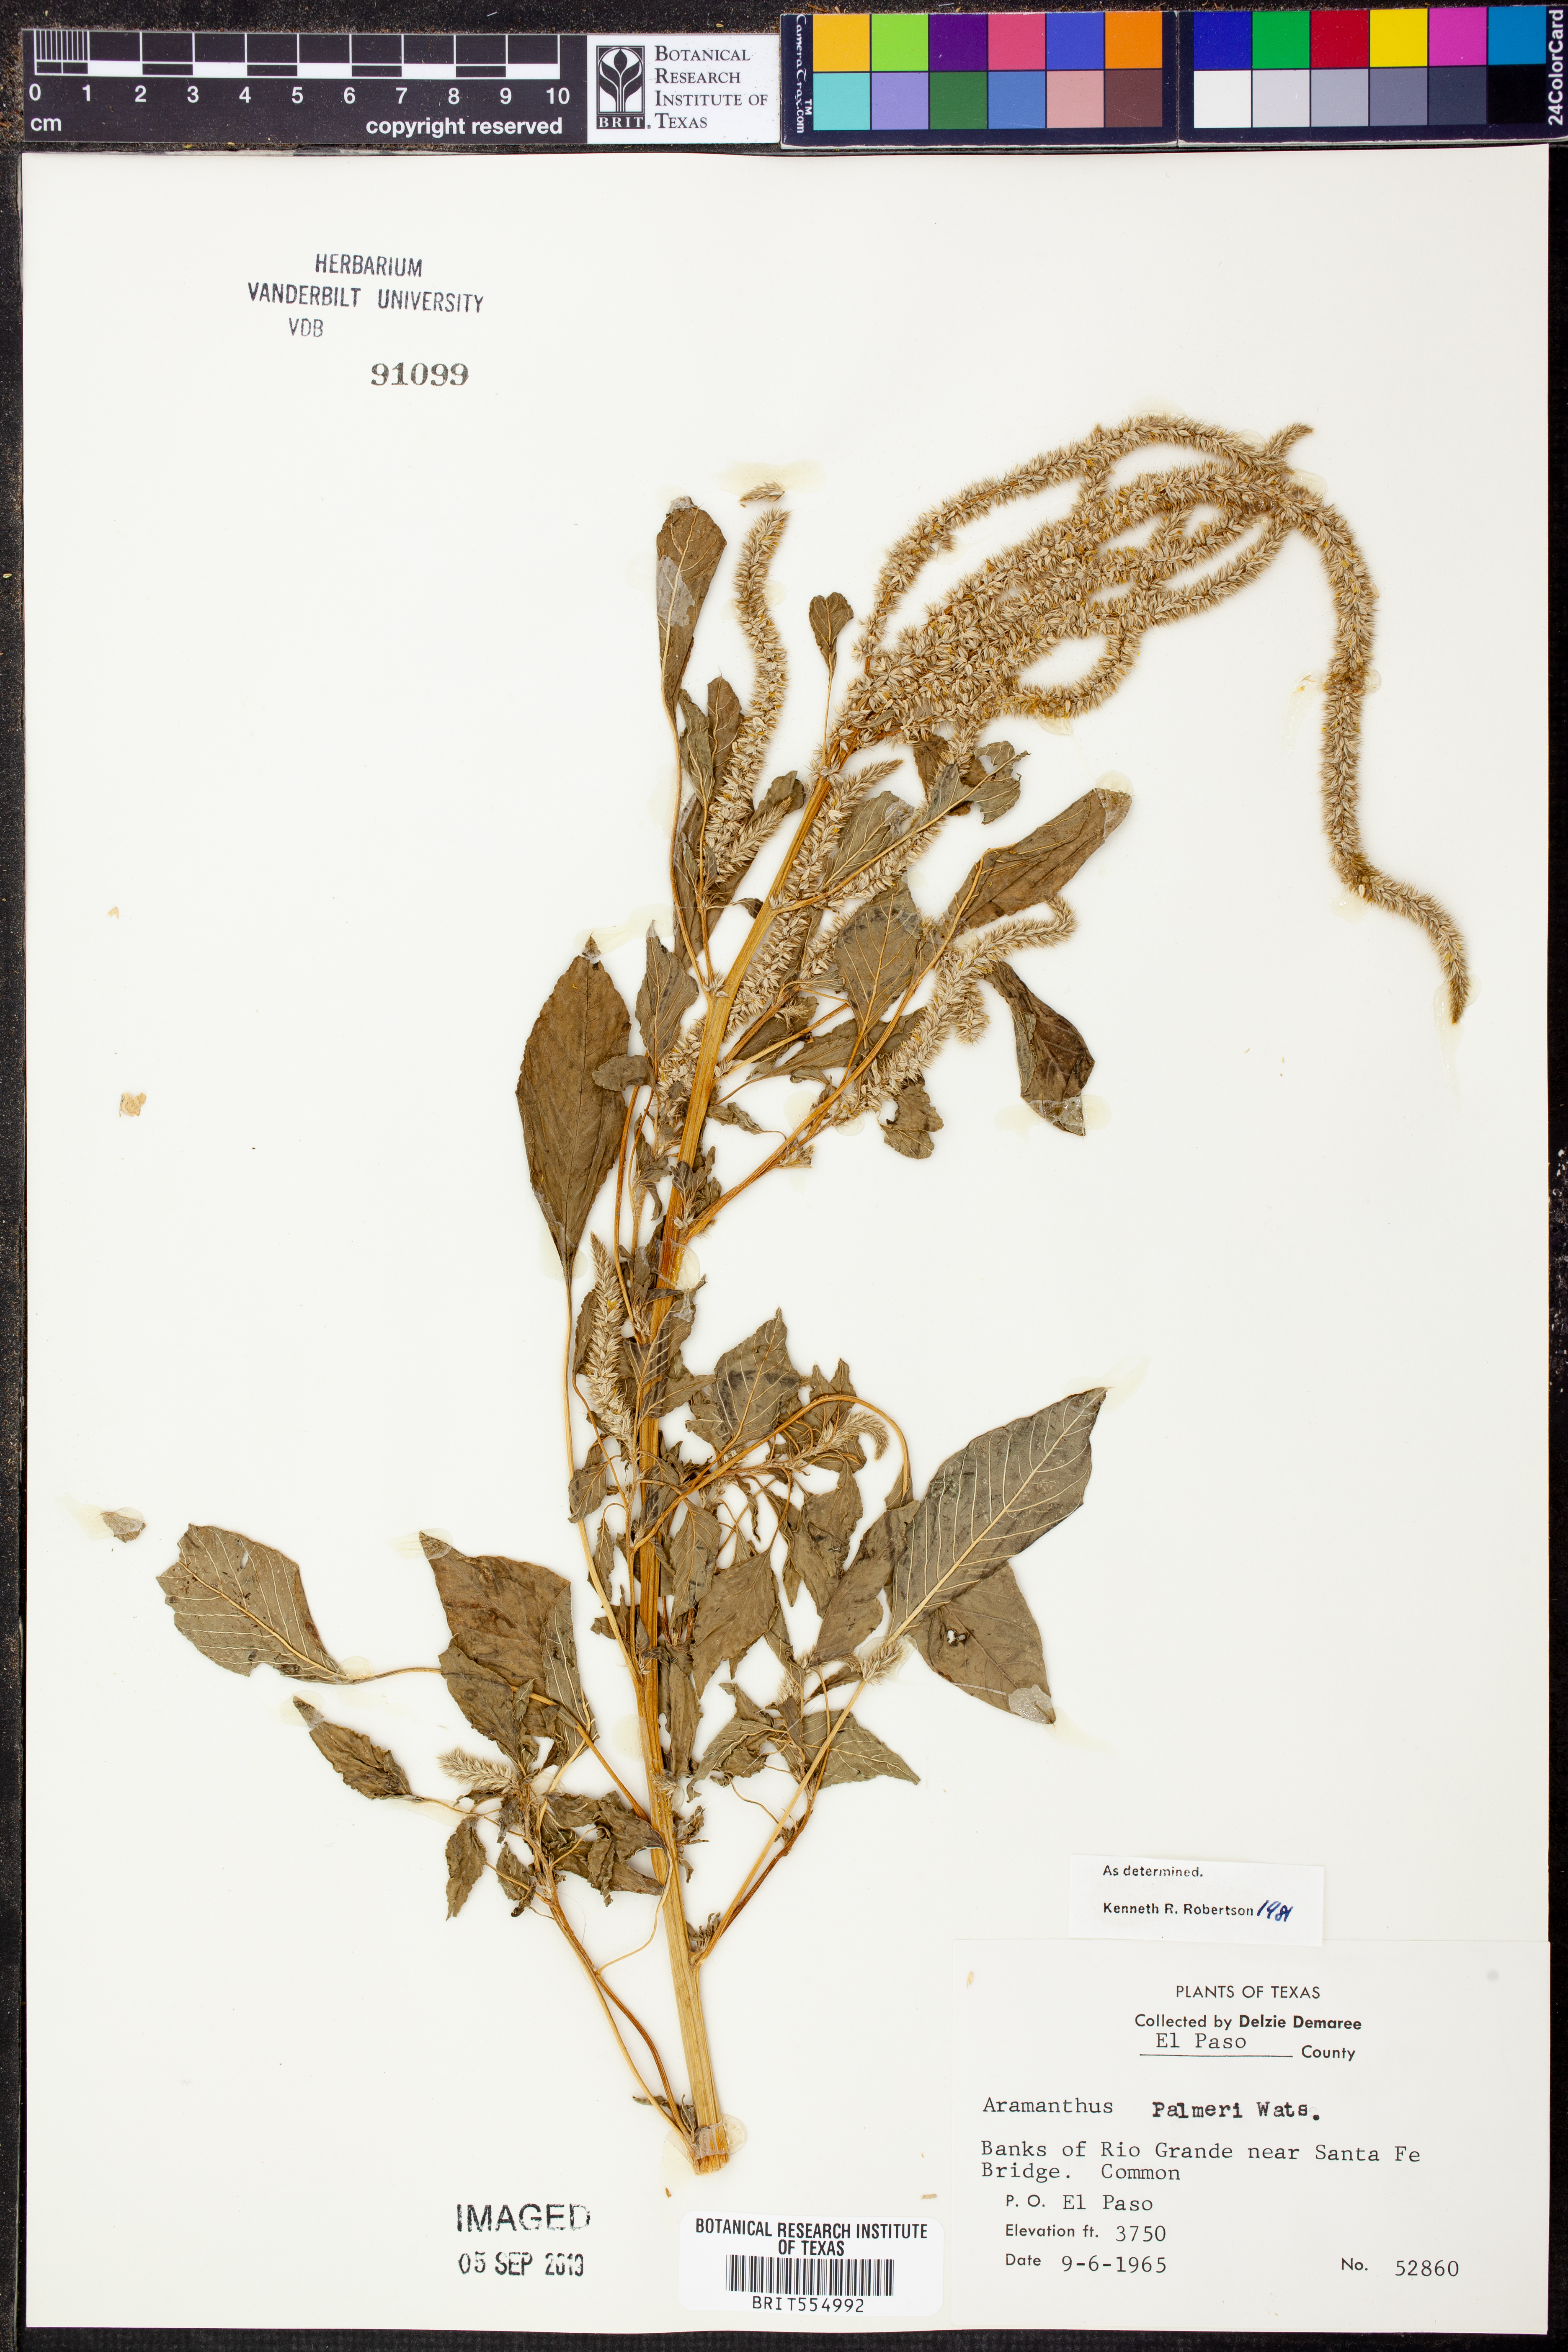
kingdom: Plantae
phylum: Tracheophyta
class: Magnoliopsida
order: Caryophyllales
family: Amaranthaceae
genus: Amaranthus
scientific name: Amaranthus palmeri
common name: Dioecious amaranth
